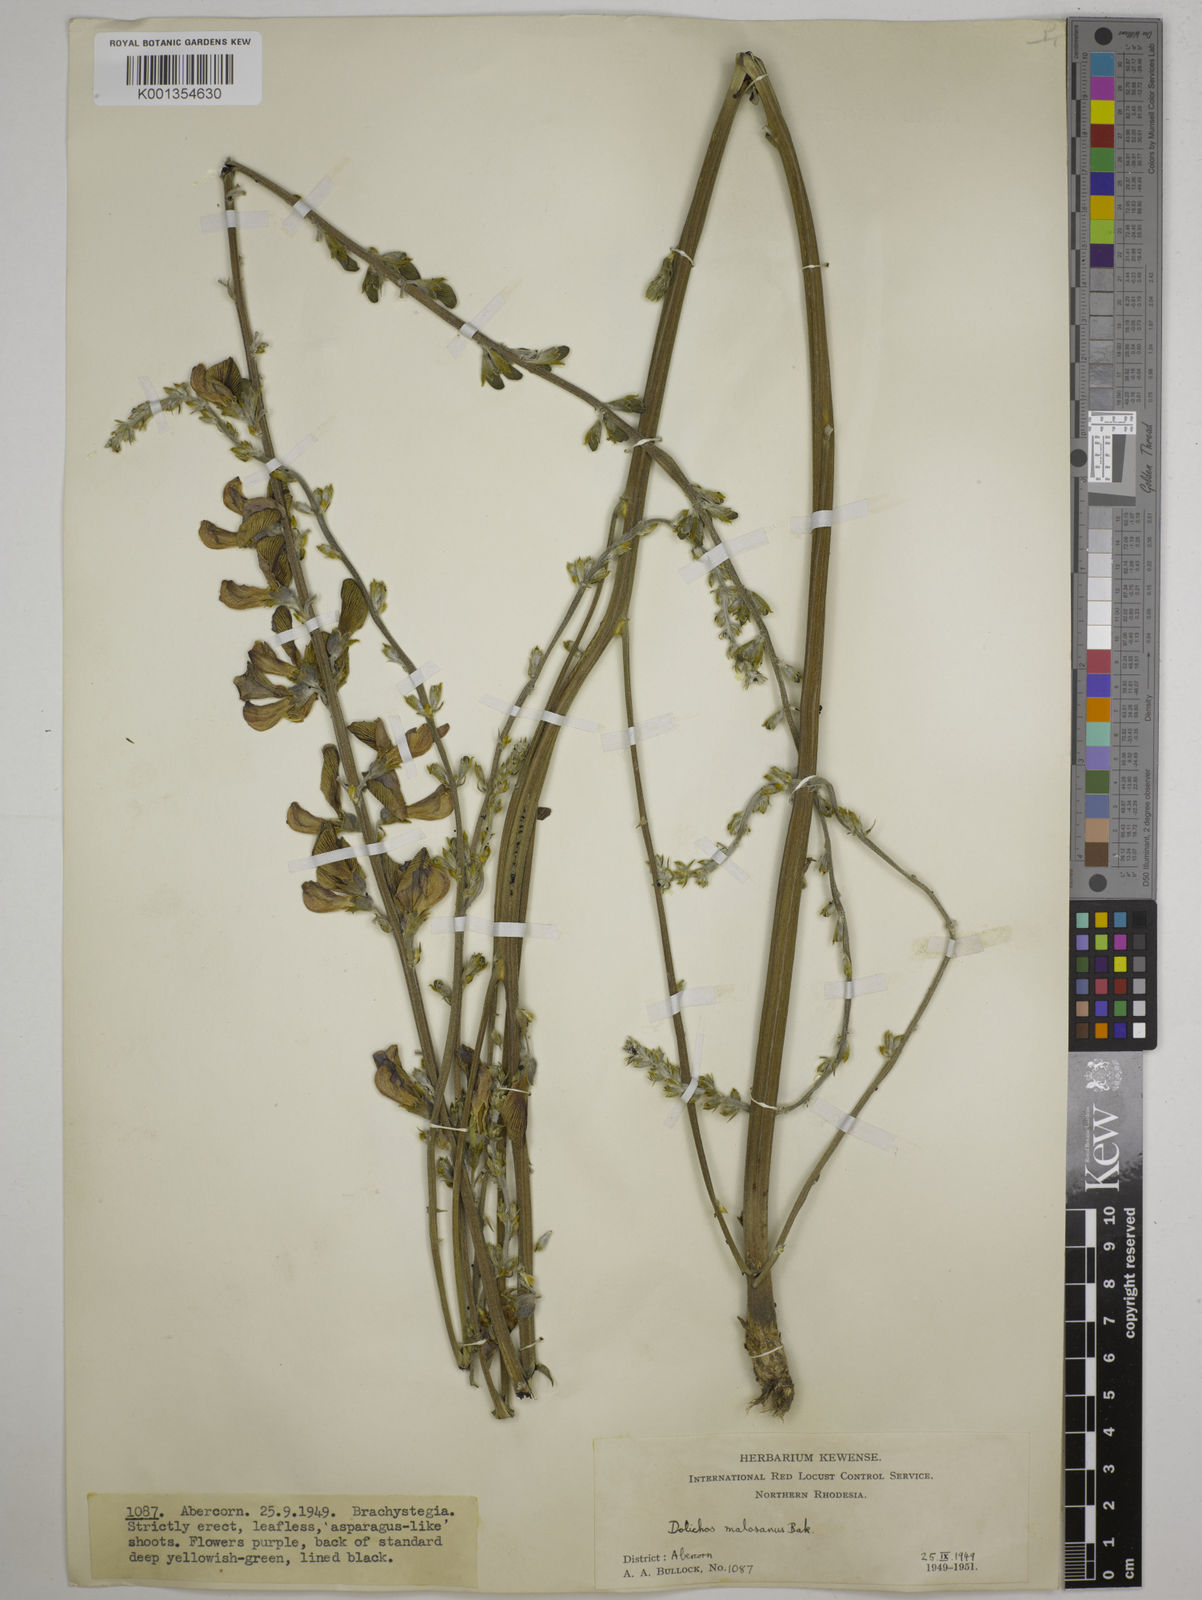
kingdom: Plantae
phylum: Tracheophyta
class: Magnoliopsida
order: Fabales
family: Fabaceae
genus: Dolichos
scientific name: Dolichos kilimandscharicus
